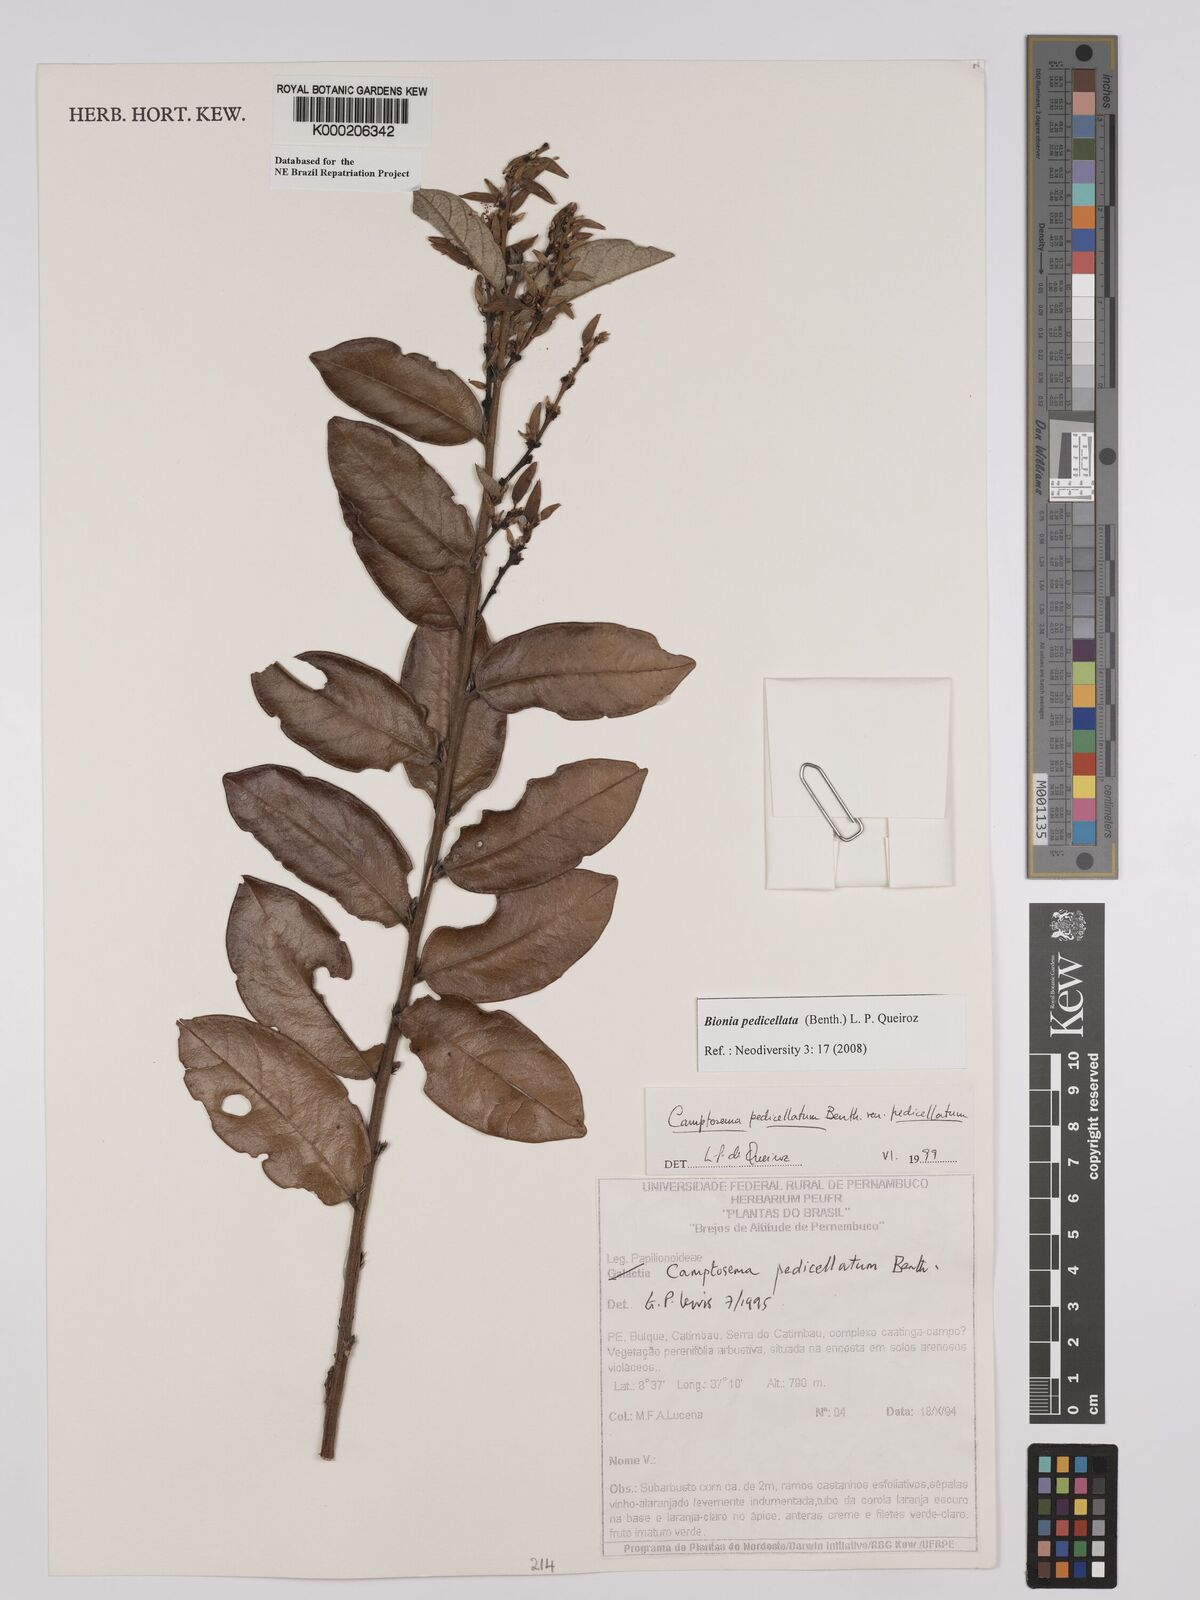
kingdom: Plantae
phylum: Tracheophyta
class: Magnoliopsida
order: Fabales
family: Fabaceae
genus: Camptosema
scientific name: Camptosema pedicellatum
